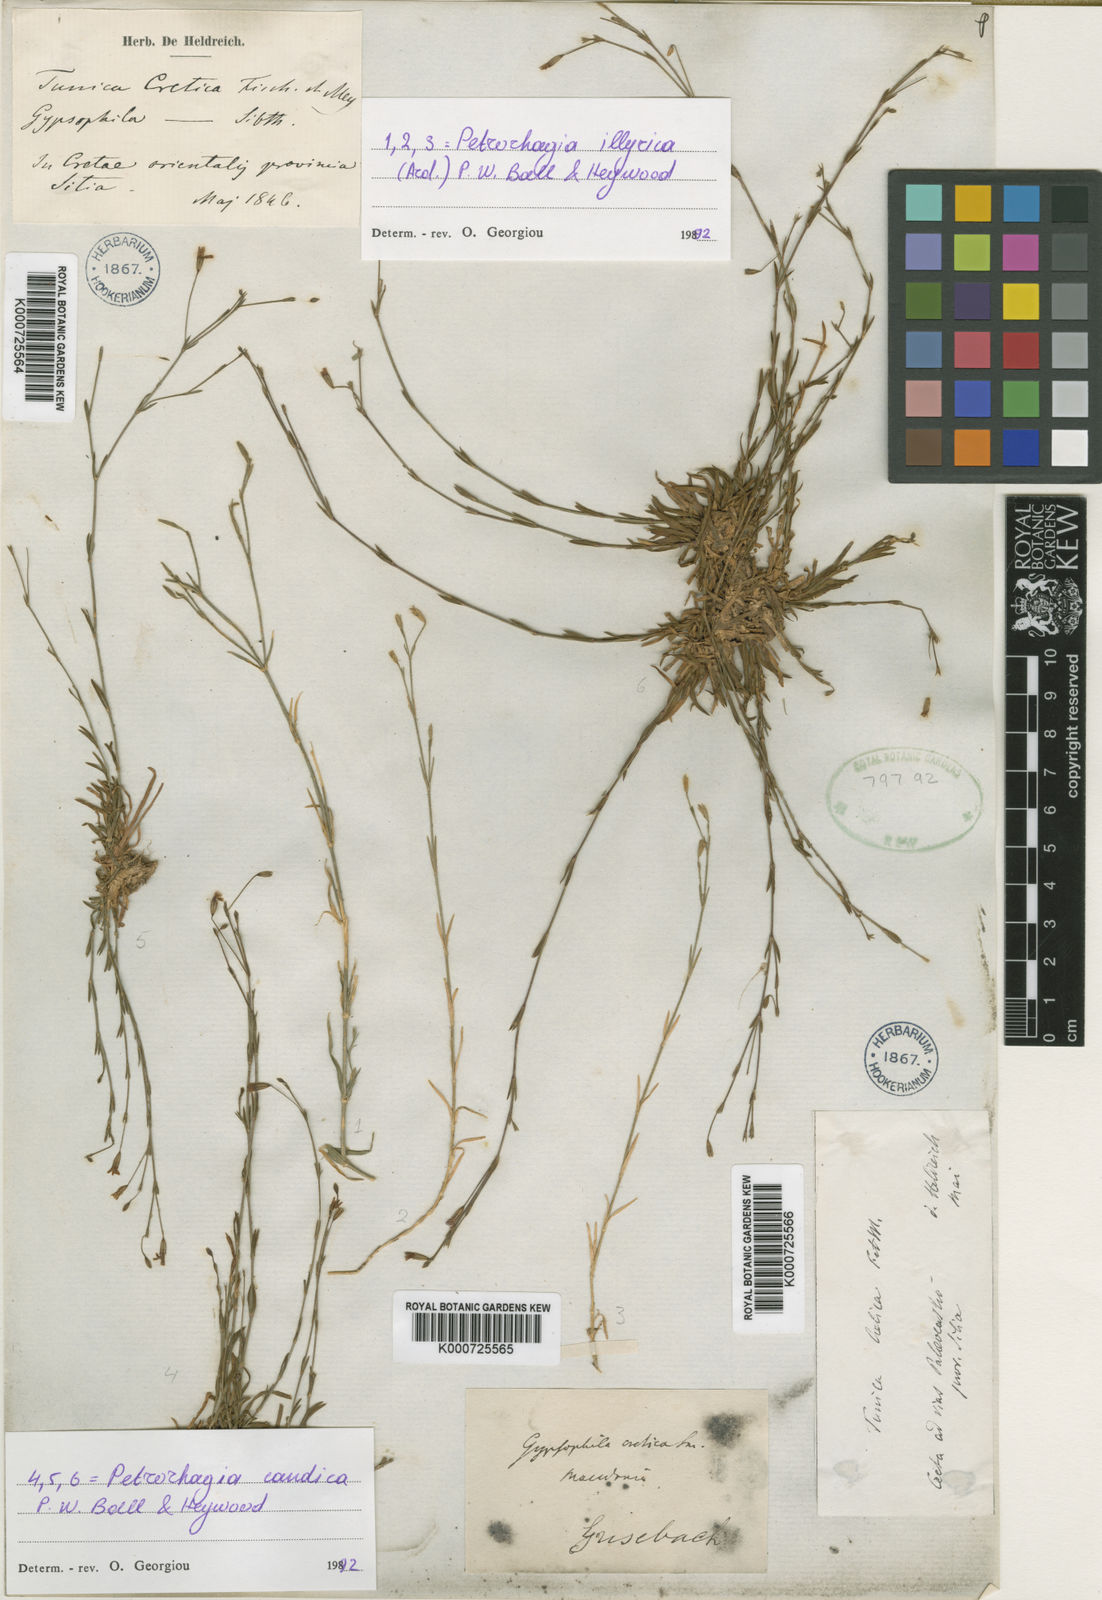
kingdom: Plantae
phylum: Tracheophyta
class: Magnoliopsida
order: Caryophyllales
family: Caryophyllaceae
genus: Petrorhagia
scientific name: Petrorhagia cretica
